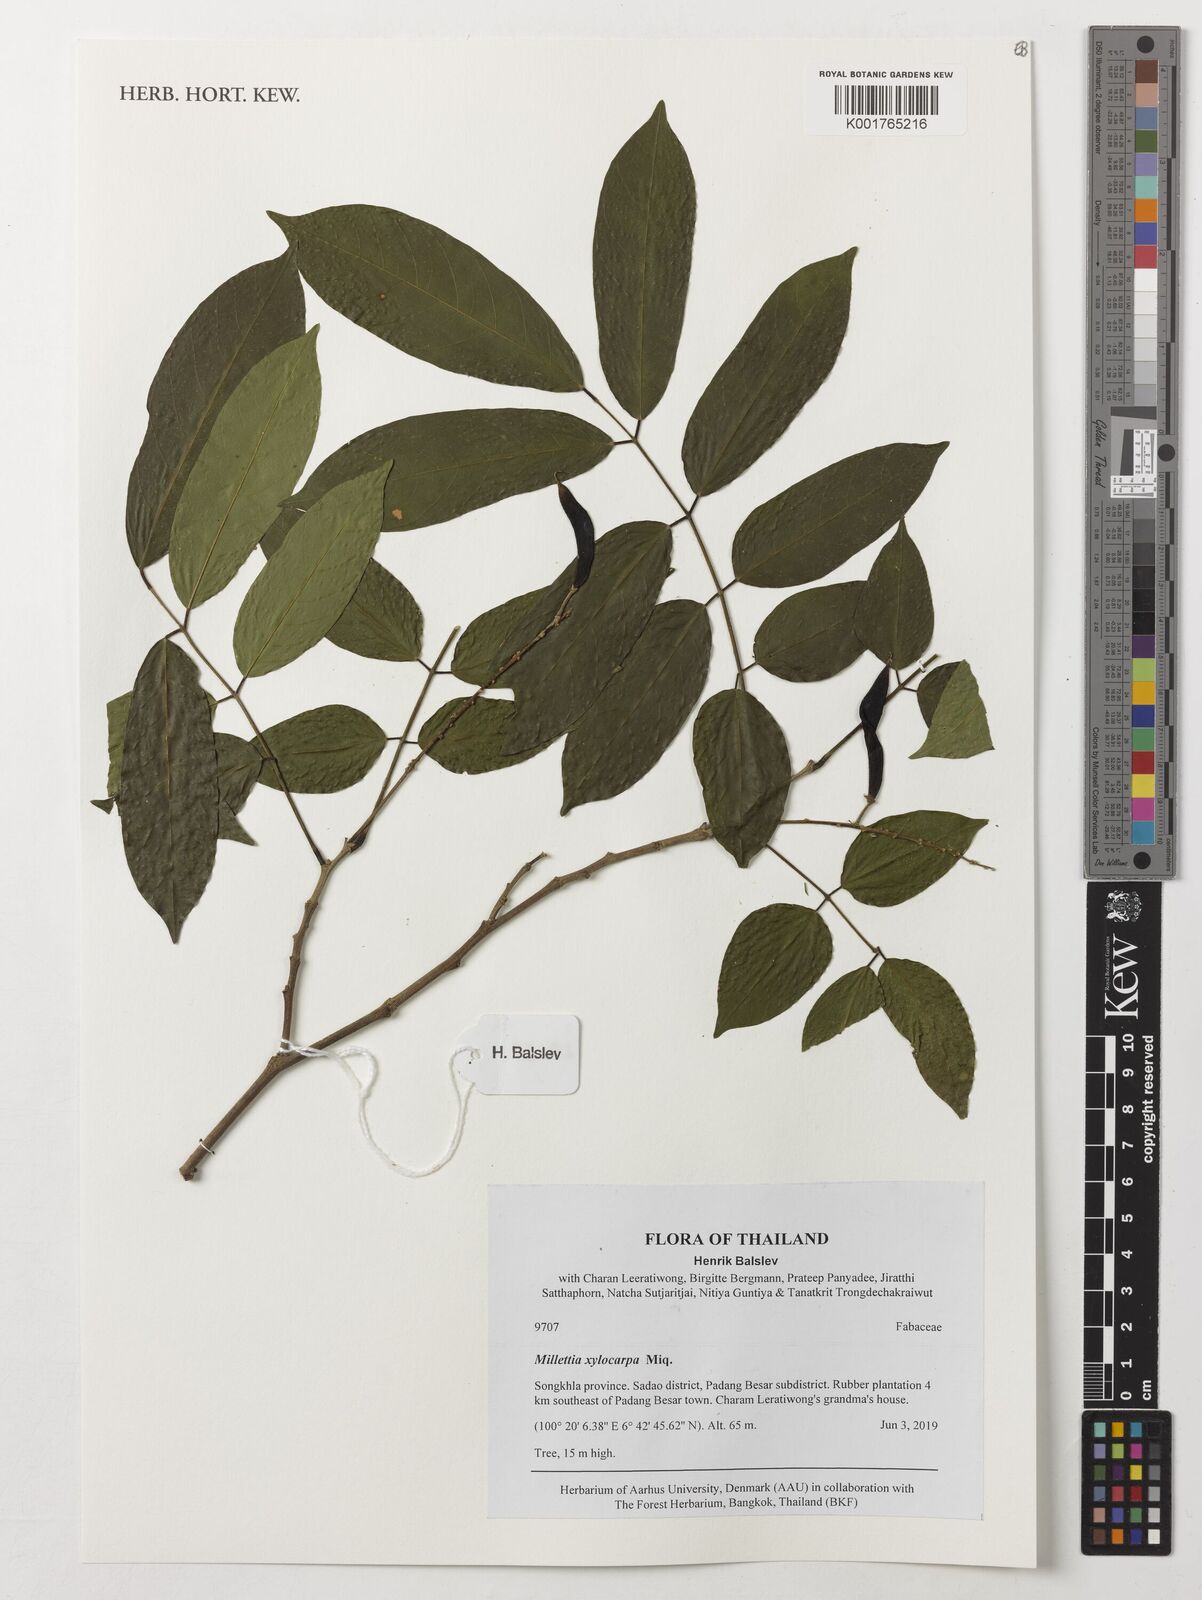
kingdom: Plantae
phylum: Tracheophyta
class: Magnoliopsida
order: Fabales
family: Fabaceae
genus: Millettia
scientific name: Millettia xylocarpa
